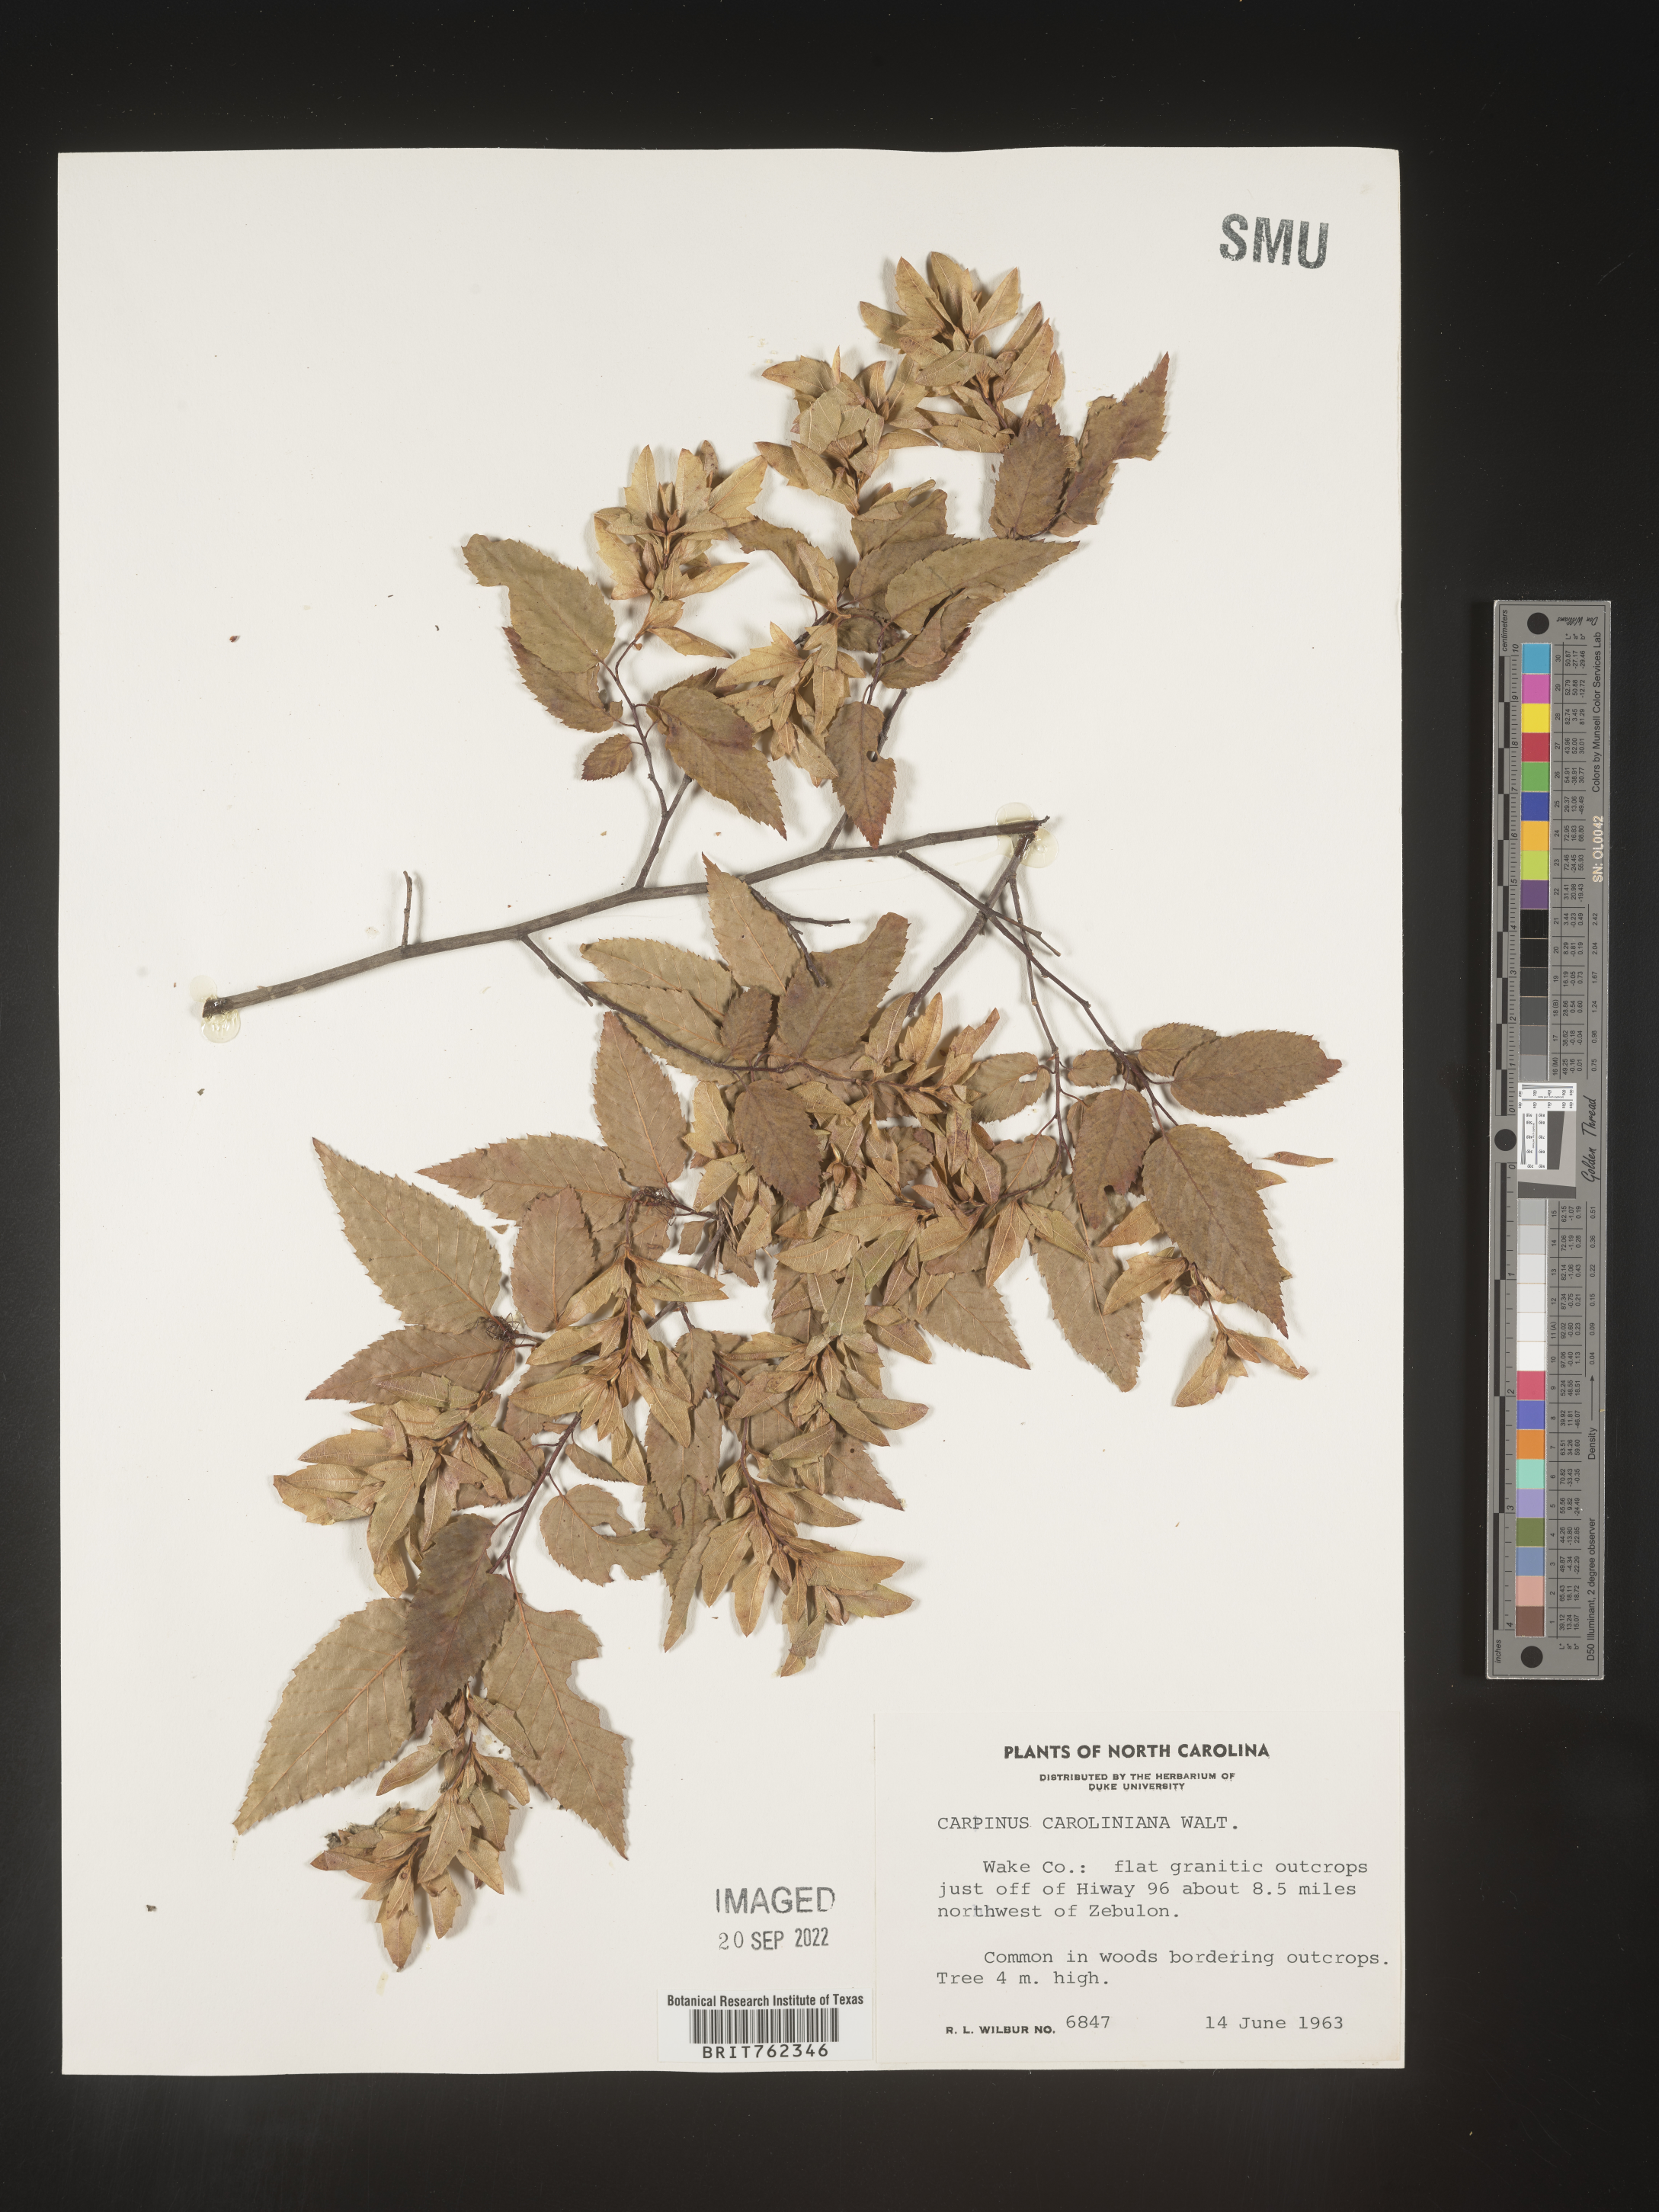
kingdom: Plantae
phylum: Tracheophyta
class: Magnoliopsida
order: Fagales
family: Betulaceae
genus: Carpinus
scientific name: Carpinus caroliniana
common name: American hornbeam
